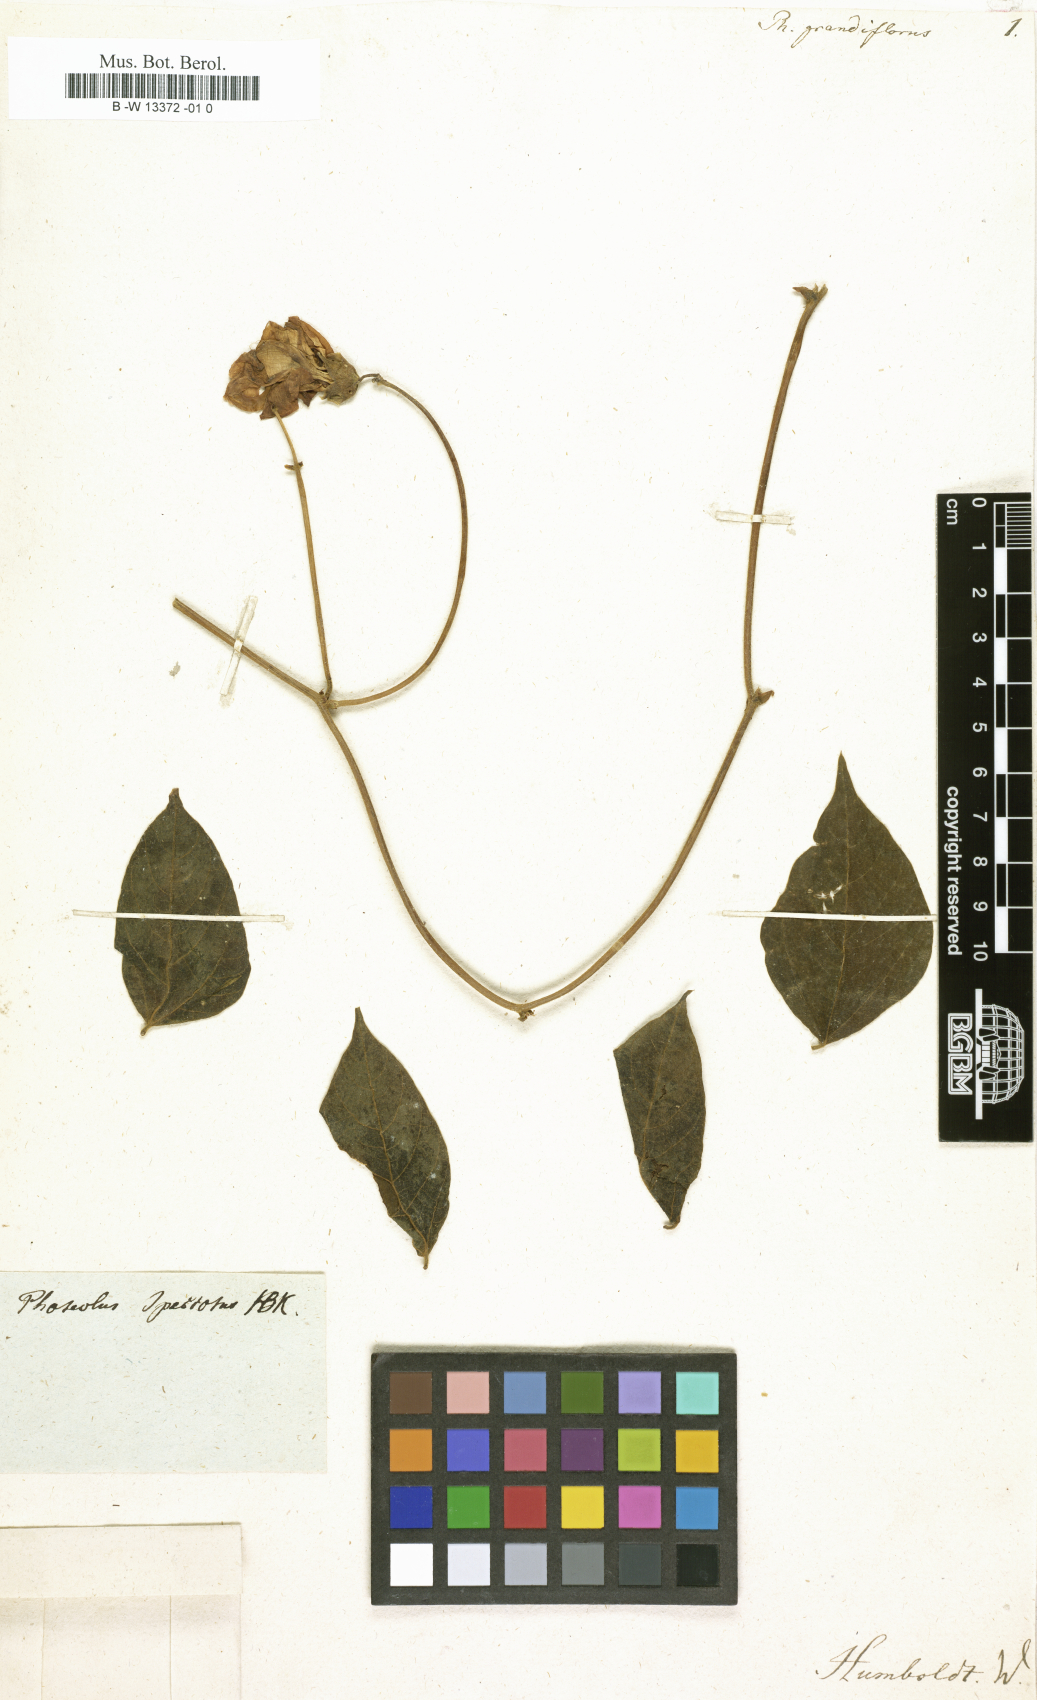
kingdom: Plantae
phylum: Tracheophyta
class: Magnoliopsida
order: Fabales
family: Fabaceae
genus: Helicotropis
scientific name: Helicotropis linearis
